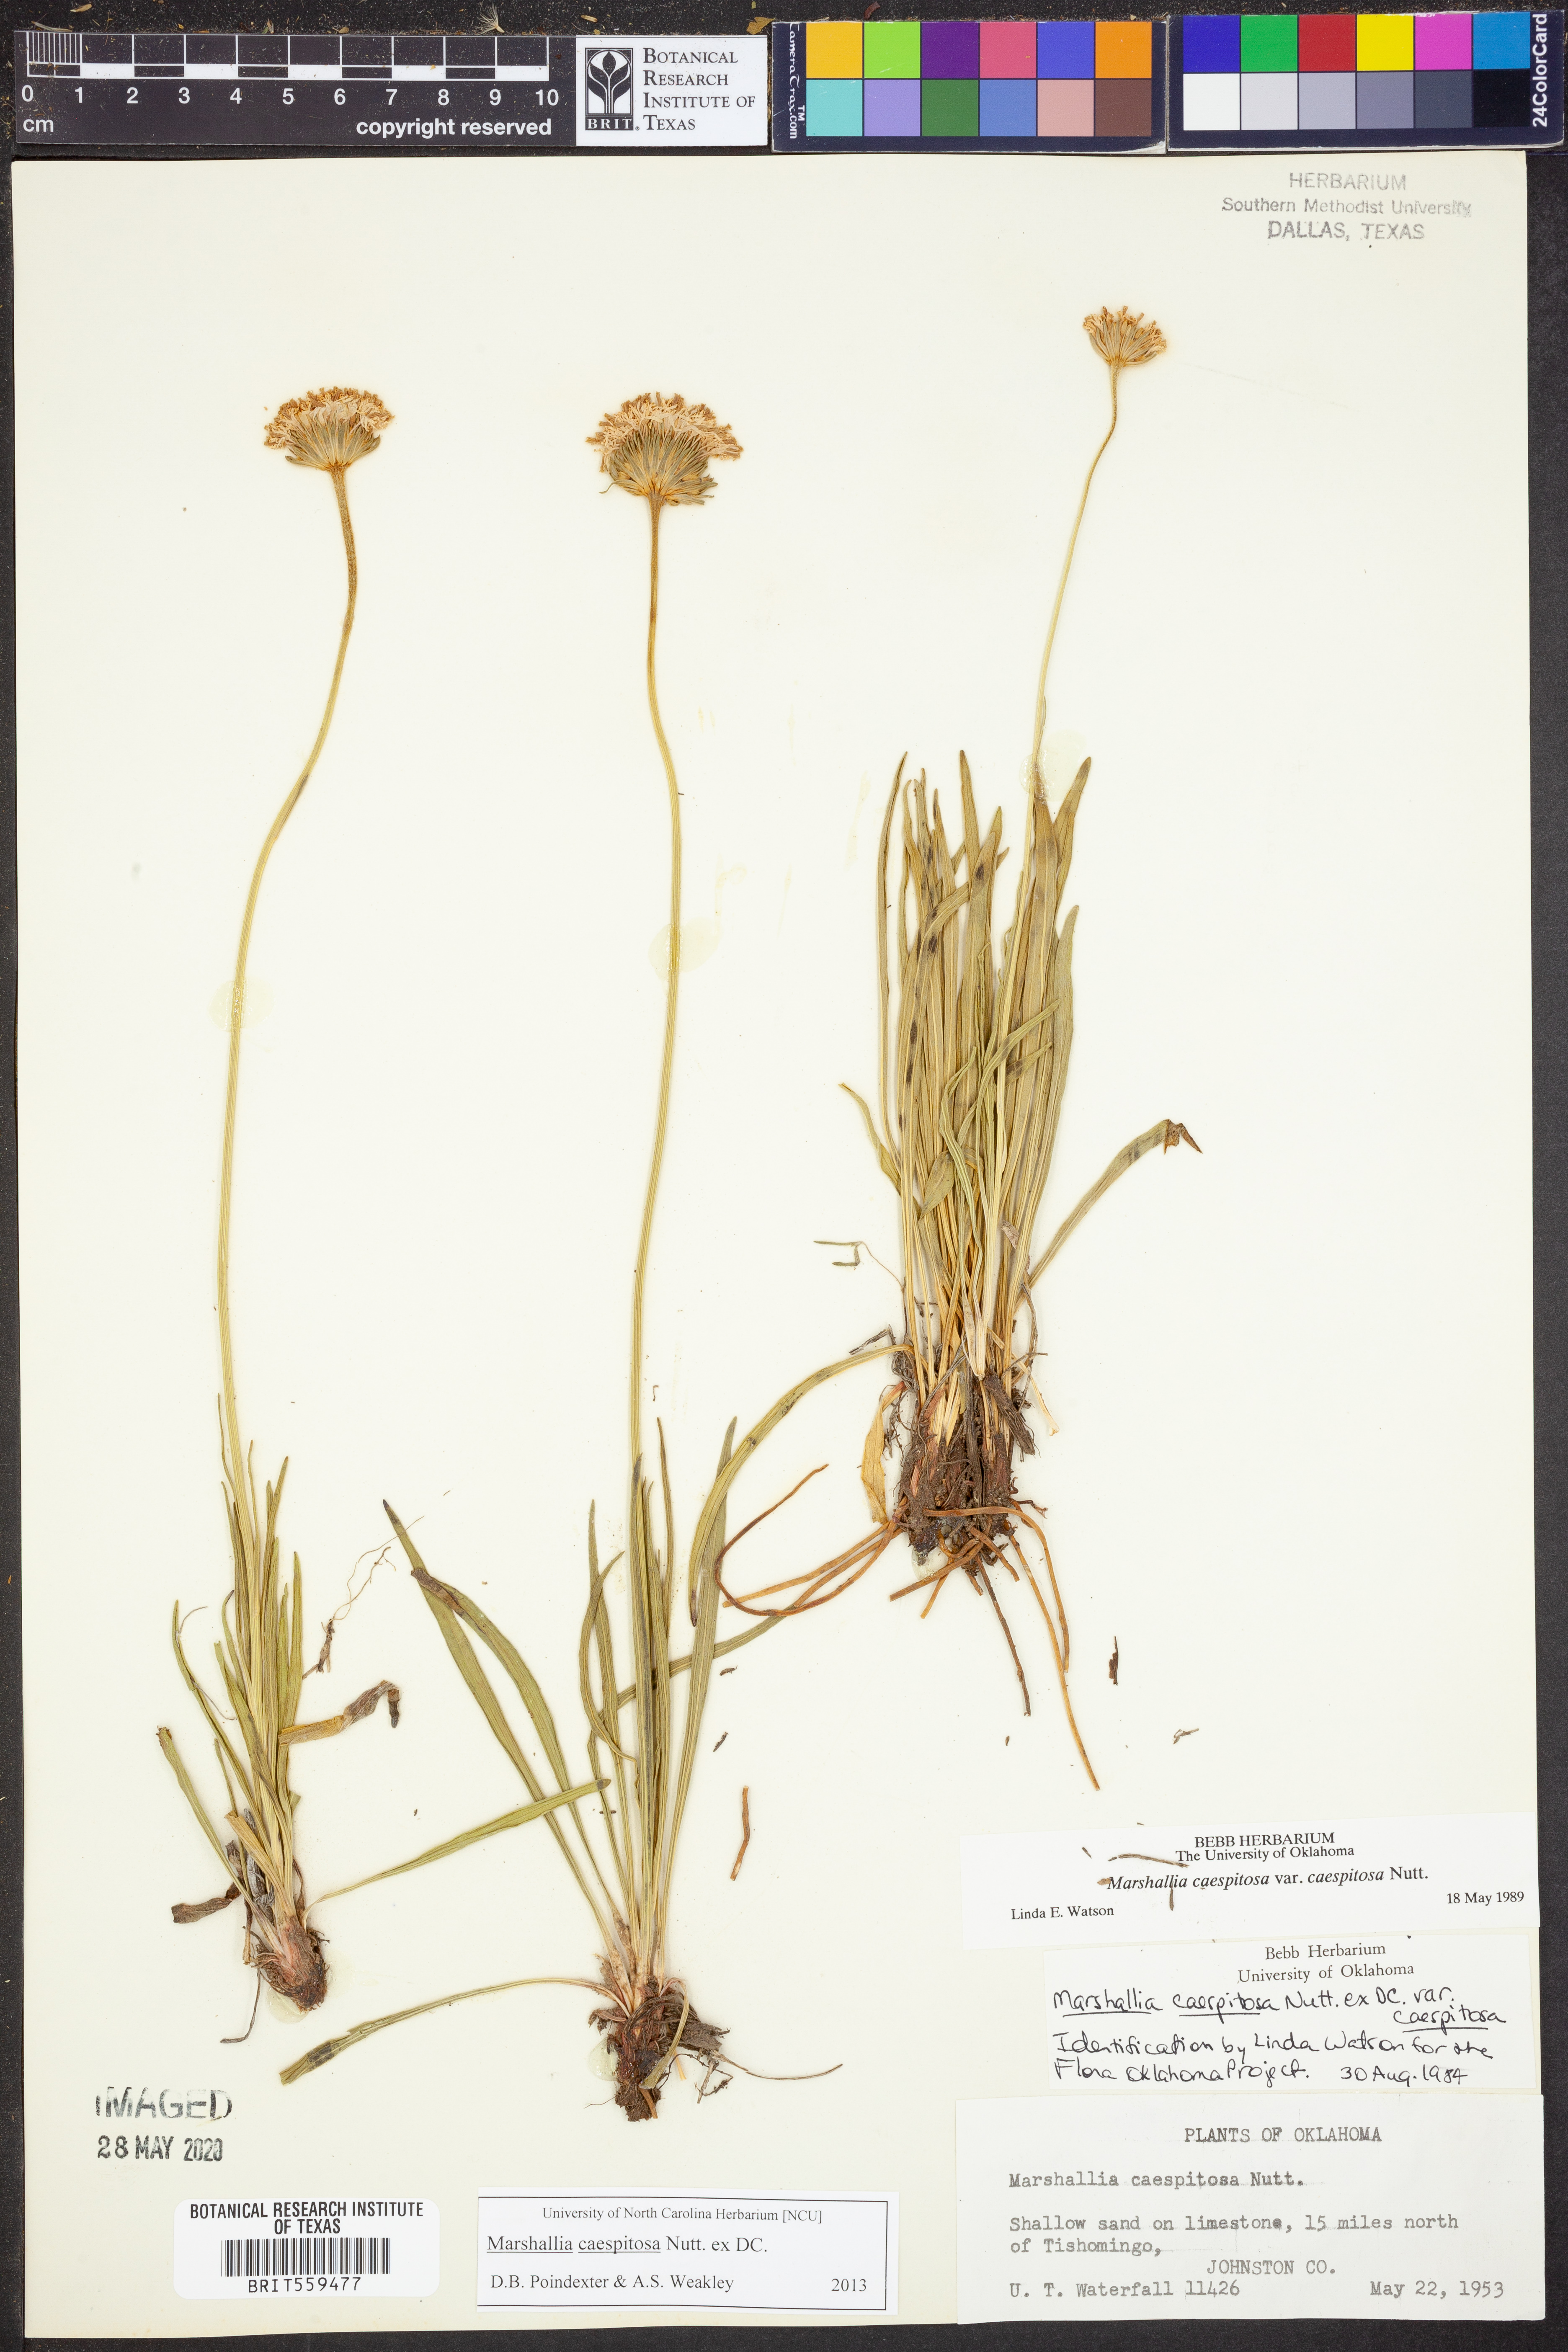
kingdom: Plantae
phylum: Tracheophyta
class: Magnoliopsida
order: Asterales
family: Asteraceae
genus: Marshallia
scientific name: Marshallia caespitosa
